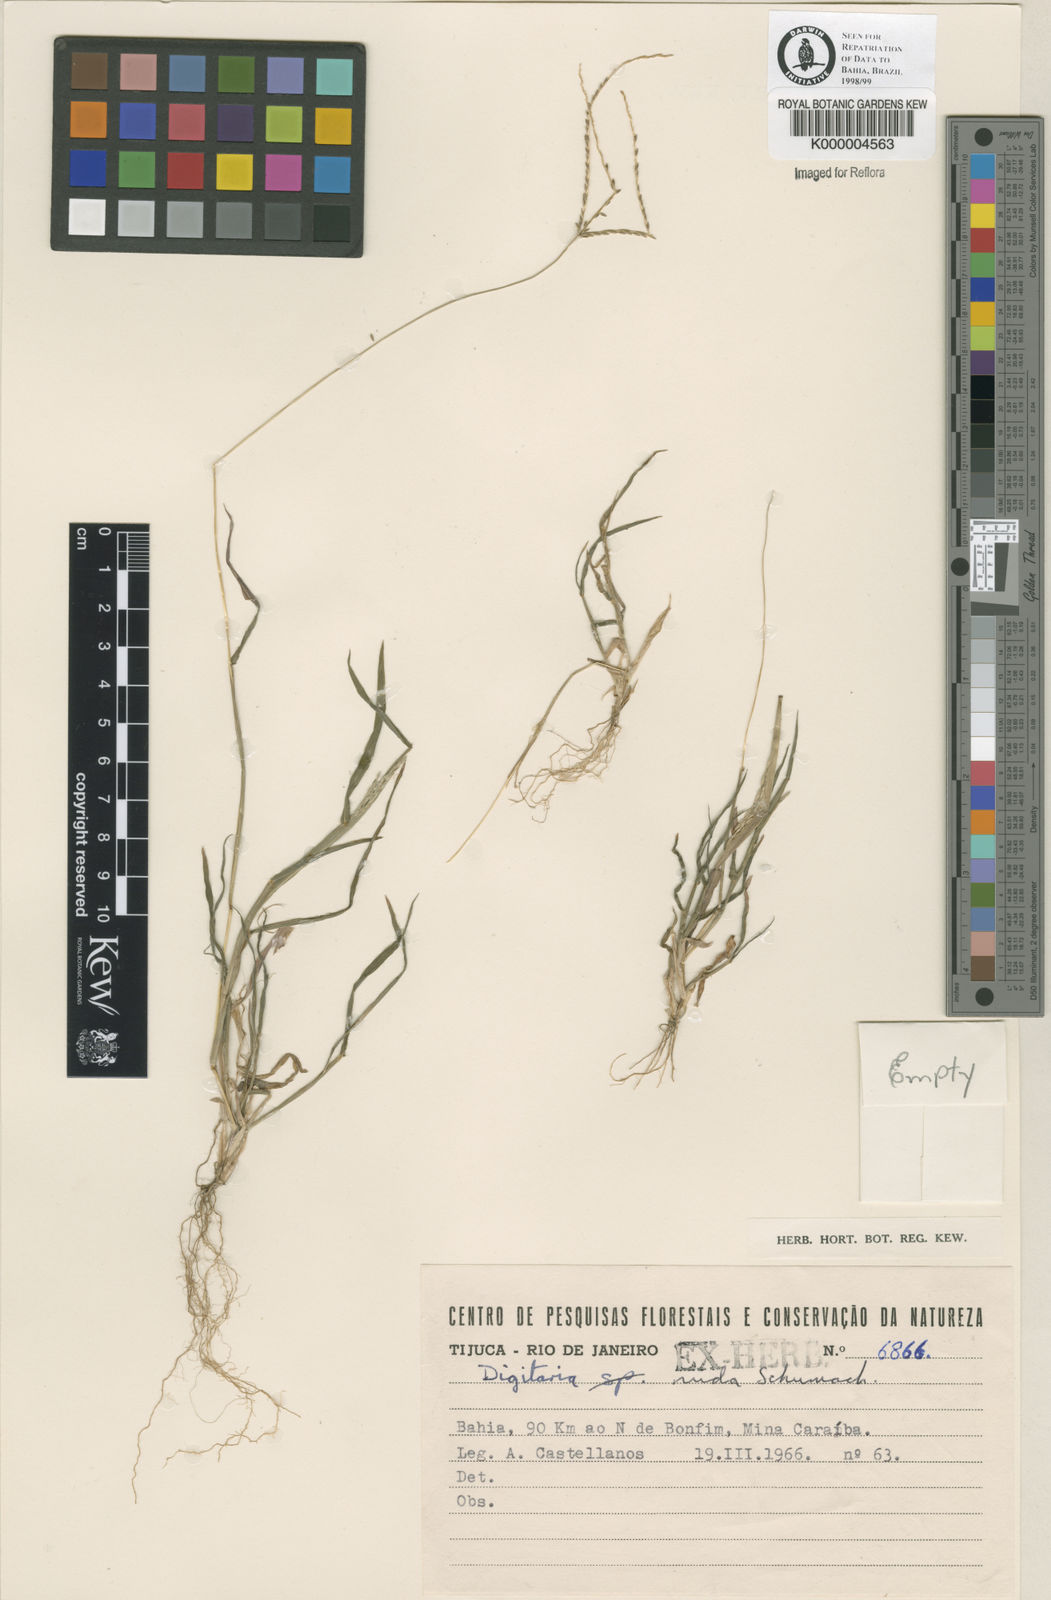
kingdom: Plantae
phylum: Tracheophyta
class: Liliopsida
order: Poales
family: Poaceae
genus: Digitaria
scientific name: Digitaria nuda
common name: Naked crabgrass
